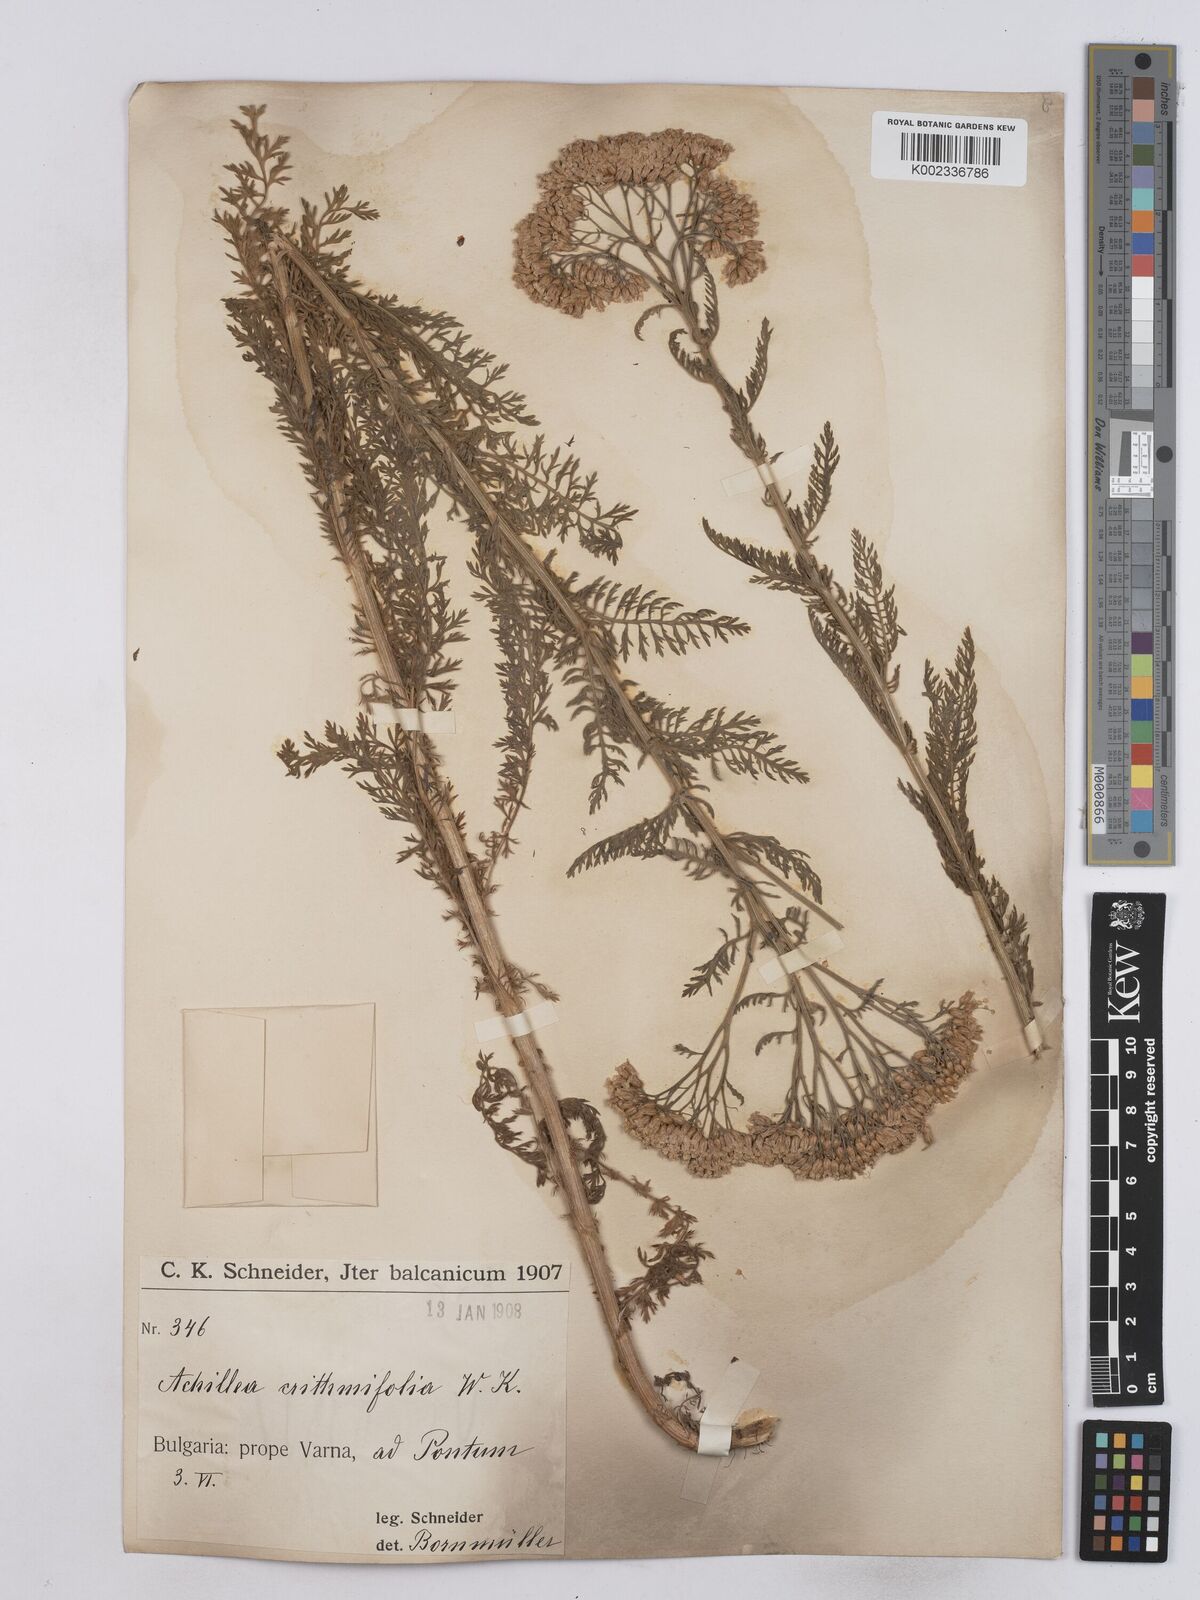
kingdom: Plantae
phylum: Tracheophyta
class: Magnoliopsida
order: Asterales
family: Asteraceae
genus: Achillea
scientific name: Achillea crithmifolia
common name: Yarrow
